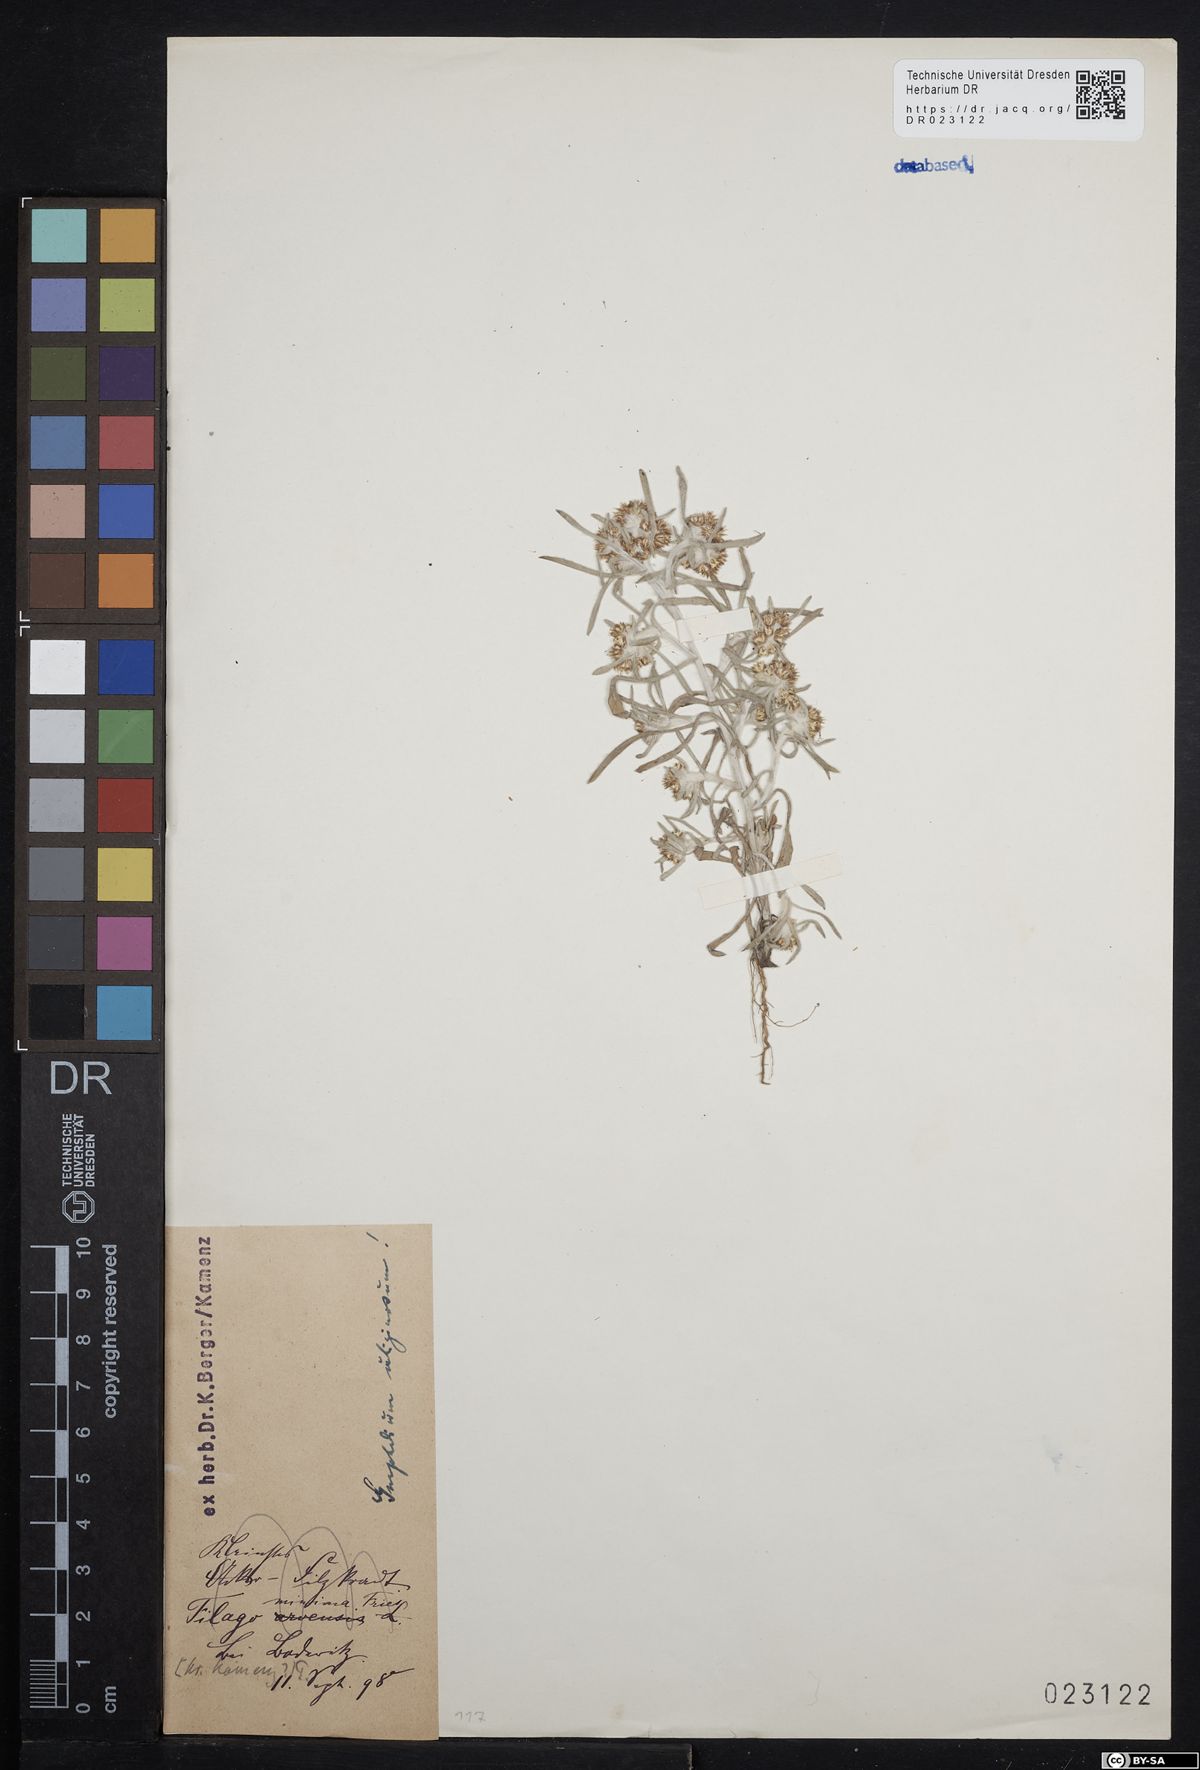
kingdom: Plantae
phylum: Tracheophyta
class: Magnoliopsida
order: Asterales
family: Asteraceae
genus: Gnaphalium
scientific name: Gnaphalium uliginosum
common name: Marsh cudweed
